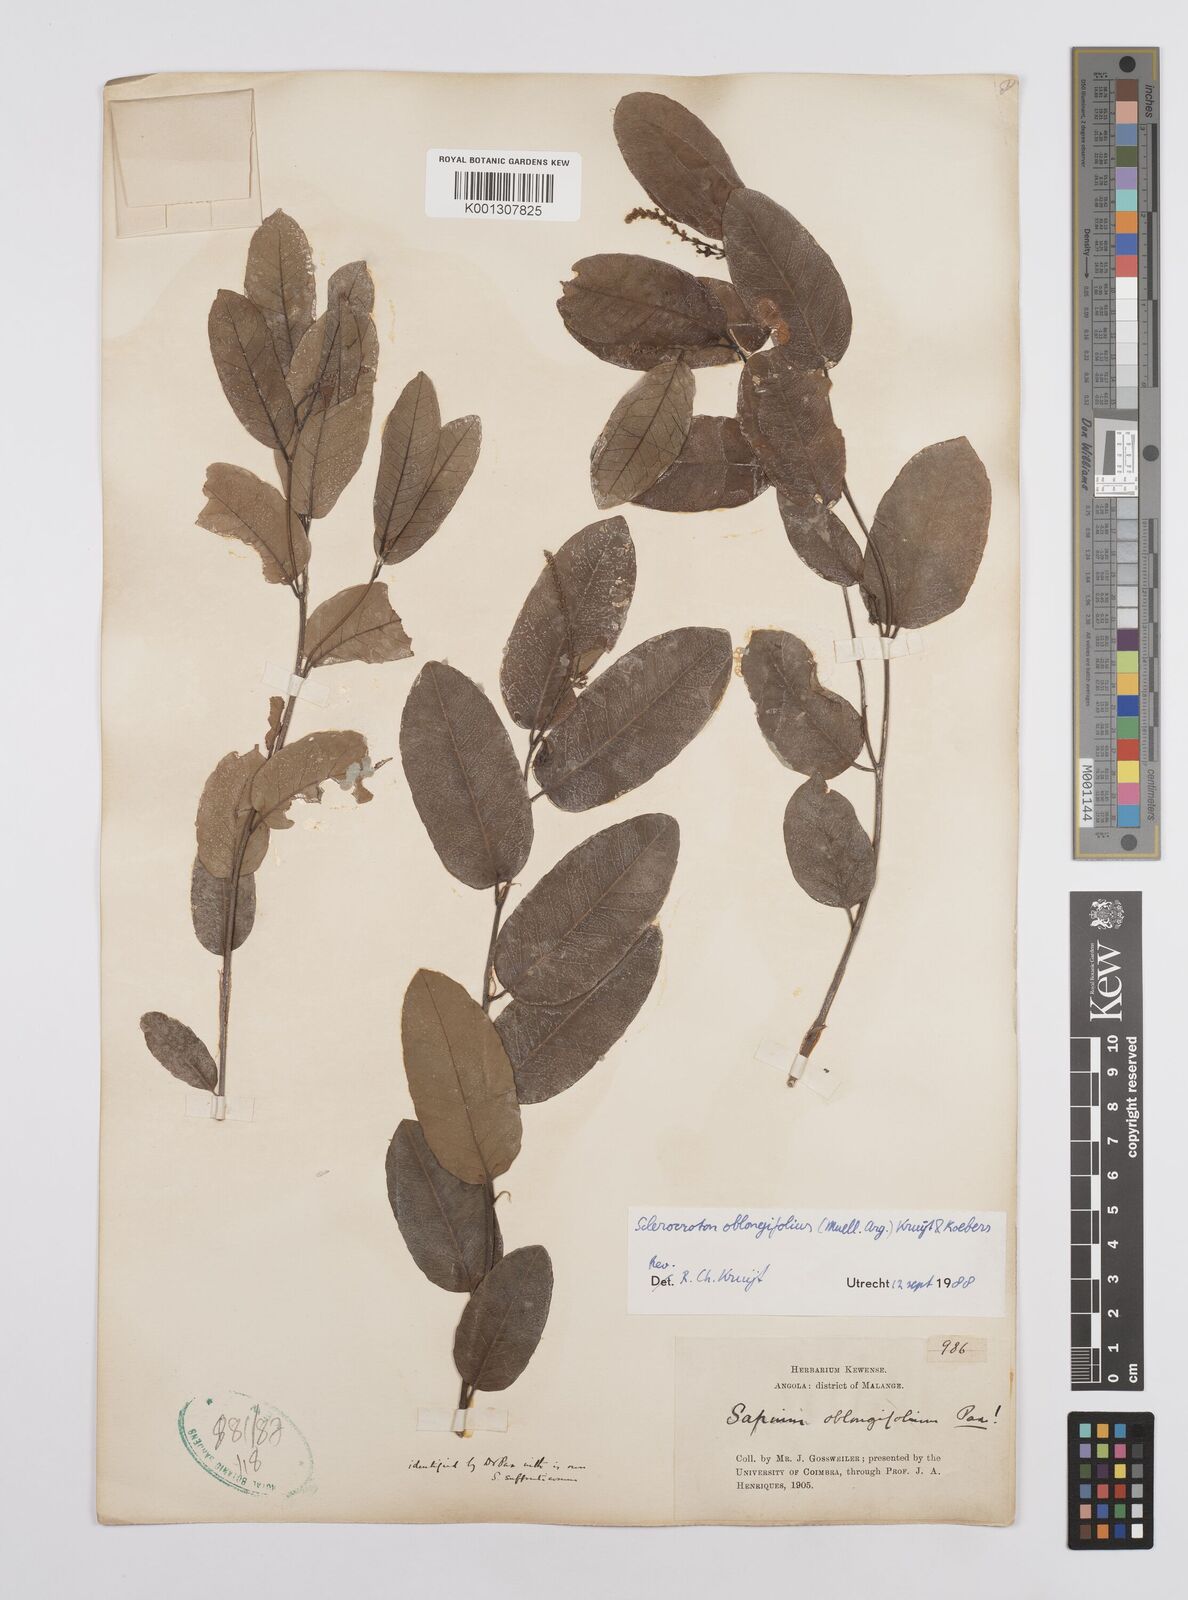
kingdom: Plantae
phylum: Tracheophyta
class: Magnoliopsida
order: Malpighiales
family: Euphorbiaceae
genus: Sclerocroton
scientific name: Sclerocroton
